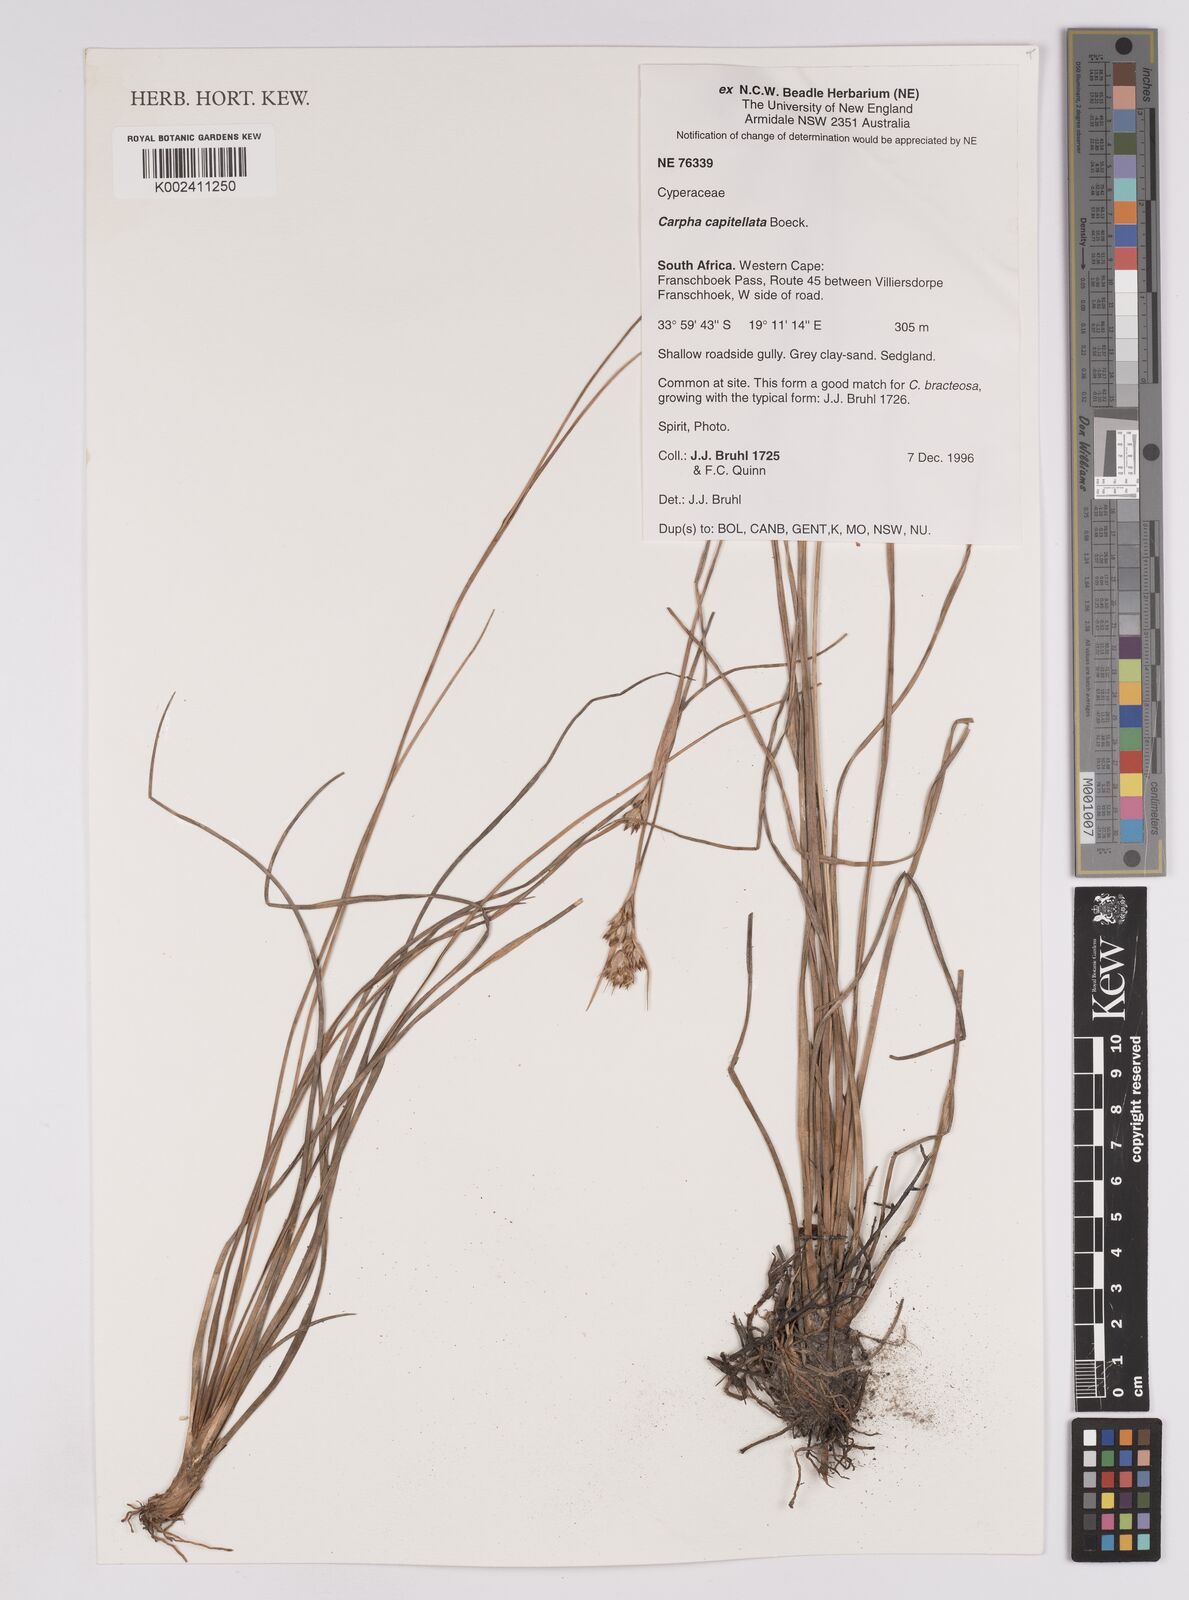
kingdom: Plantae
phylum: Tracheophyta
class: Liliopsida
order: Poales
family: Cyperaceae
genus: Carpha
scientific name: Carpha
